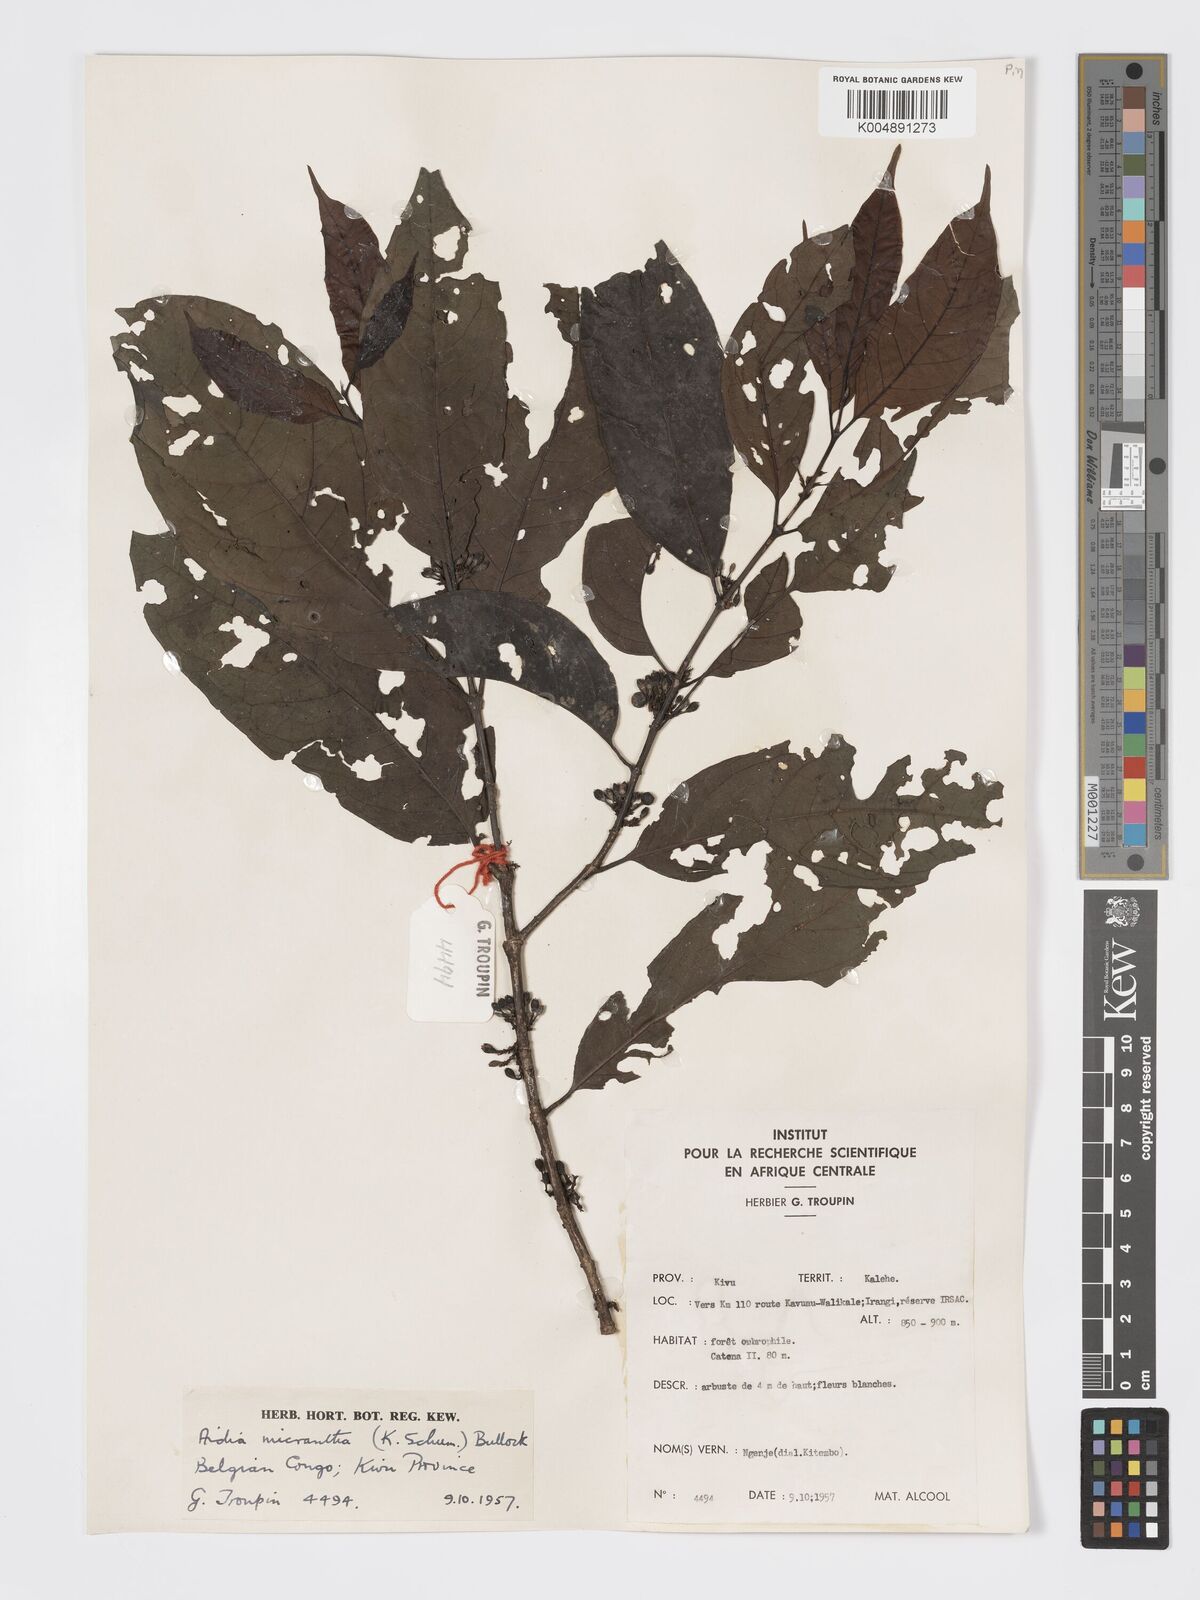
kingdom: Plantae
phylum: Tracheophyta
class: Magnoliopsida
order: Gentianales
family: Rubiaceae
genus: Aidia
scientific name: Aidia micrantha
